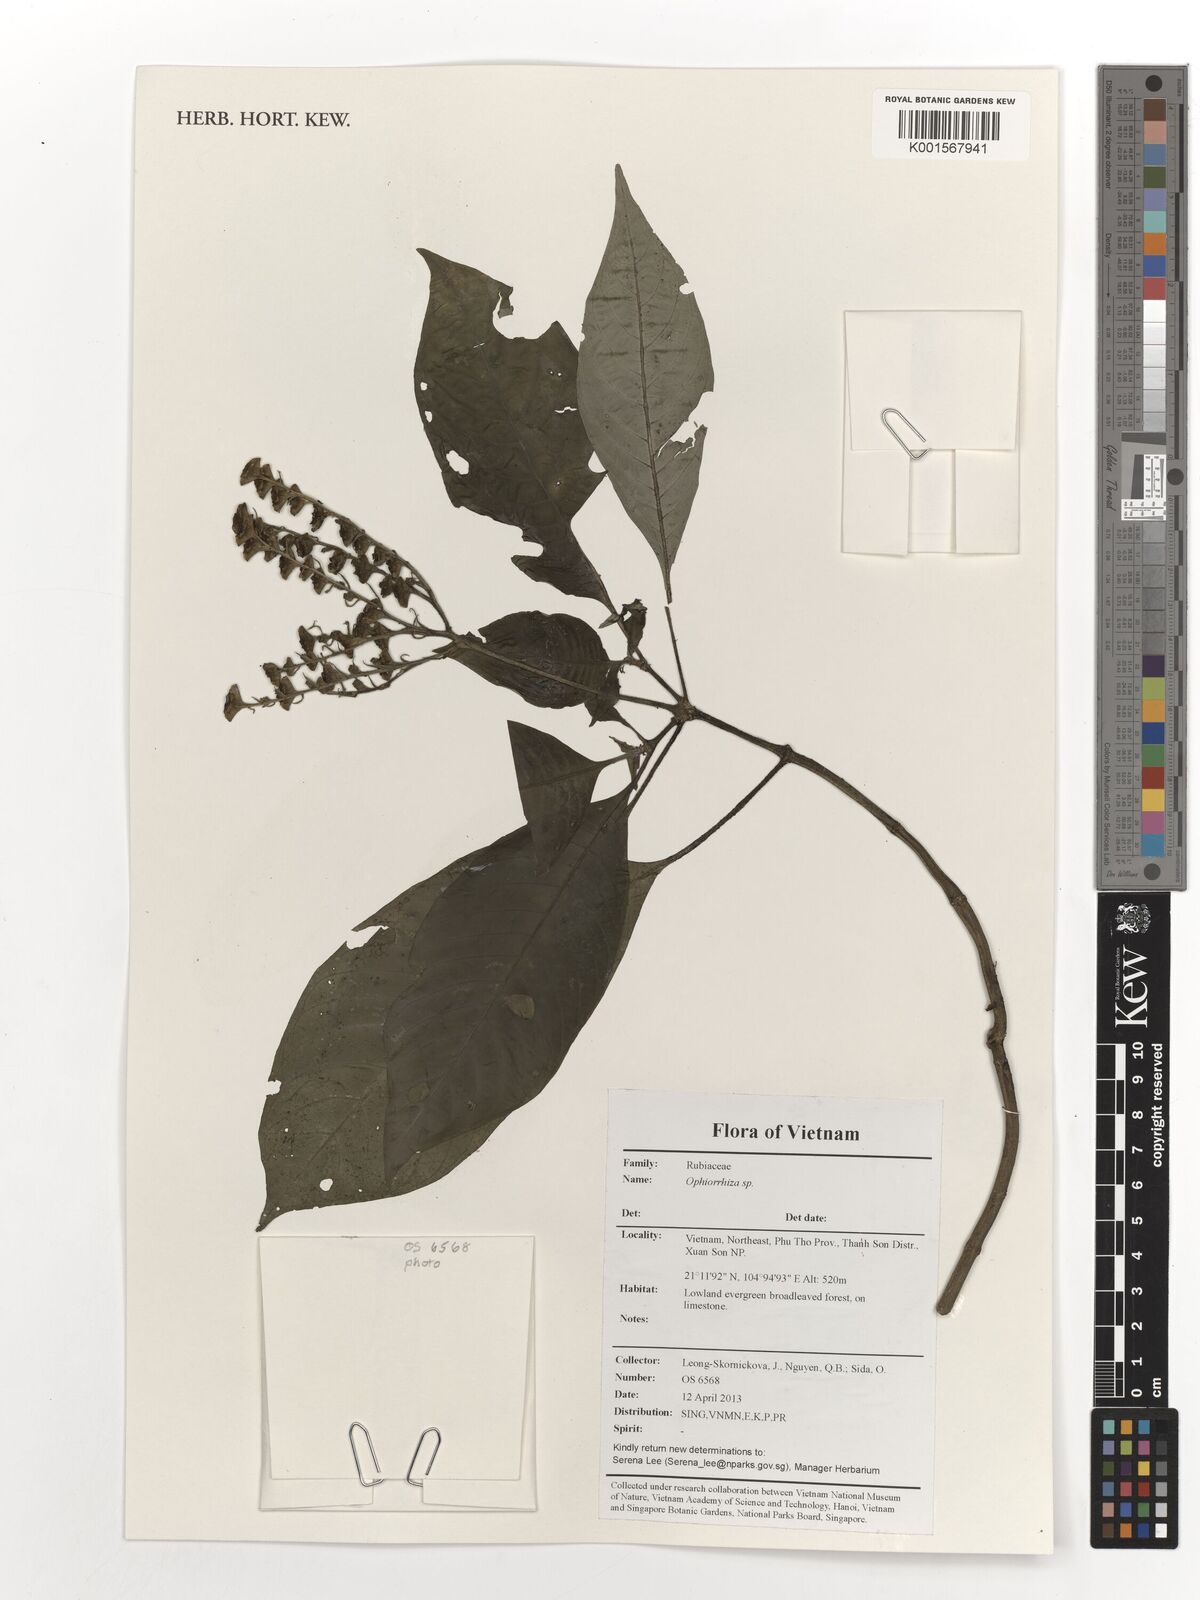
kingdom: Plantae
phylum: Tracheophyta
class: Magnoliopsida
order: Gentianales
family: Rubiaceae
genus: Ophiorrhiza
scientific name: Ophiorrhiza
